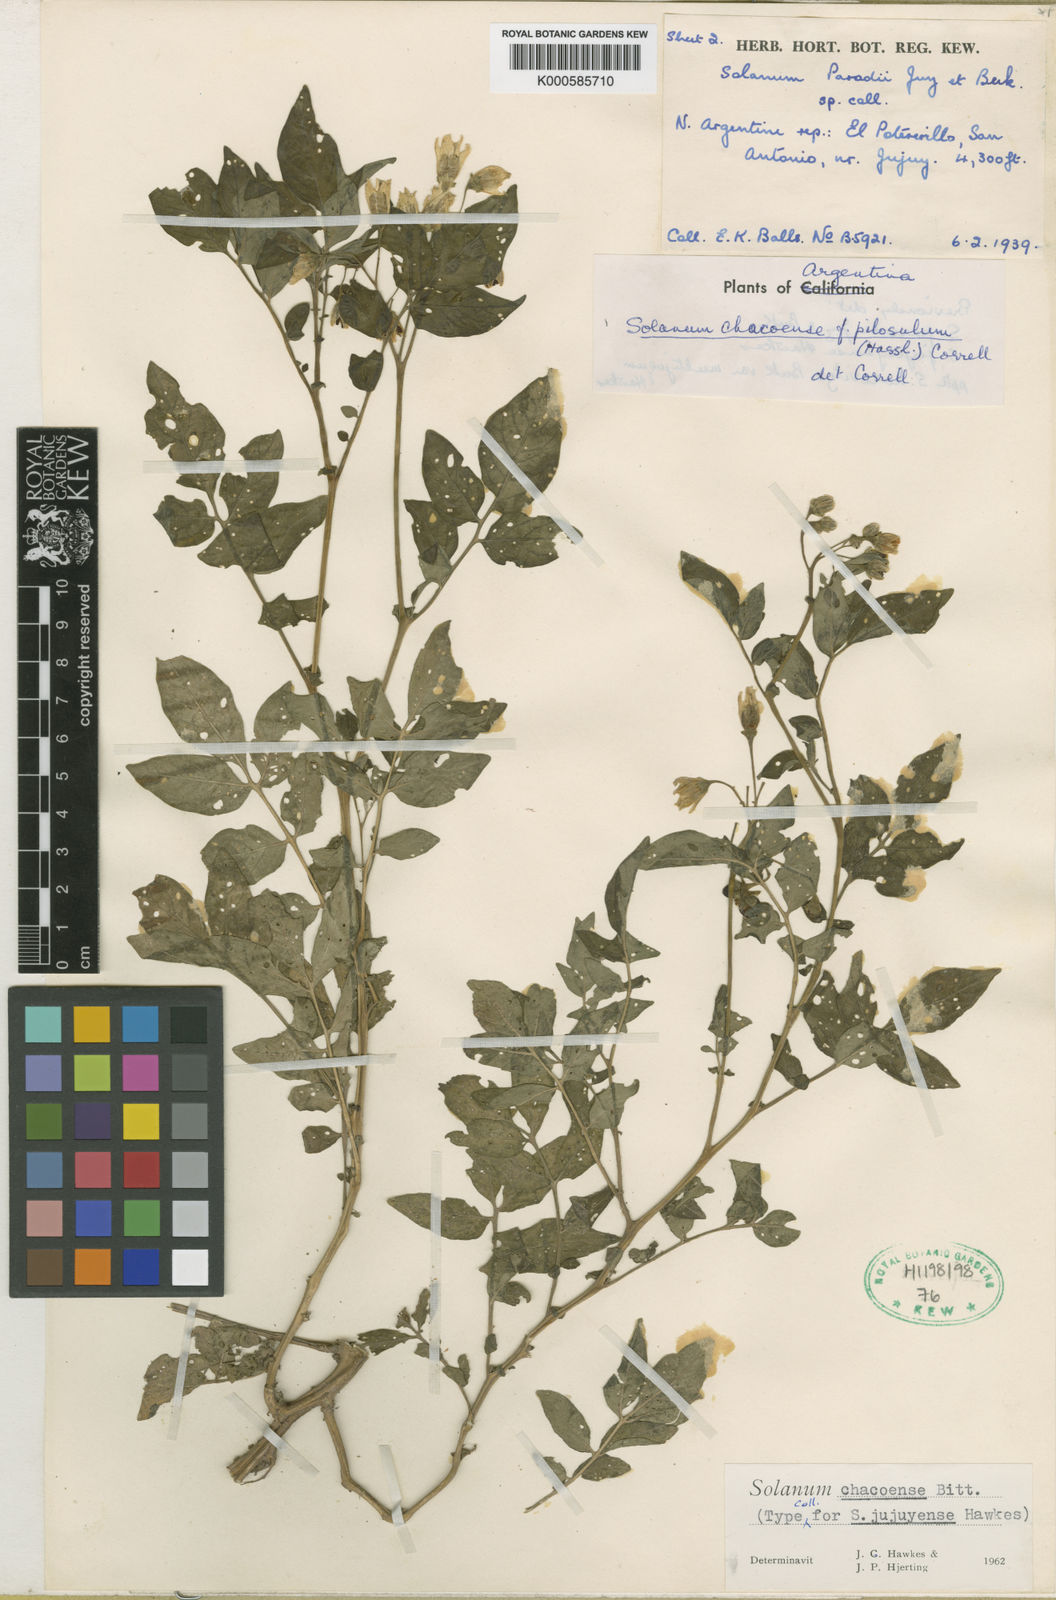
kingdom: Plantae
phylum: Tracheophyta
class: Magnoliopsida
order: Solanales
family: Solanaceae
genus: Solanum
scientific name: Solanum chacoense
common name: Chaco potato
